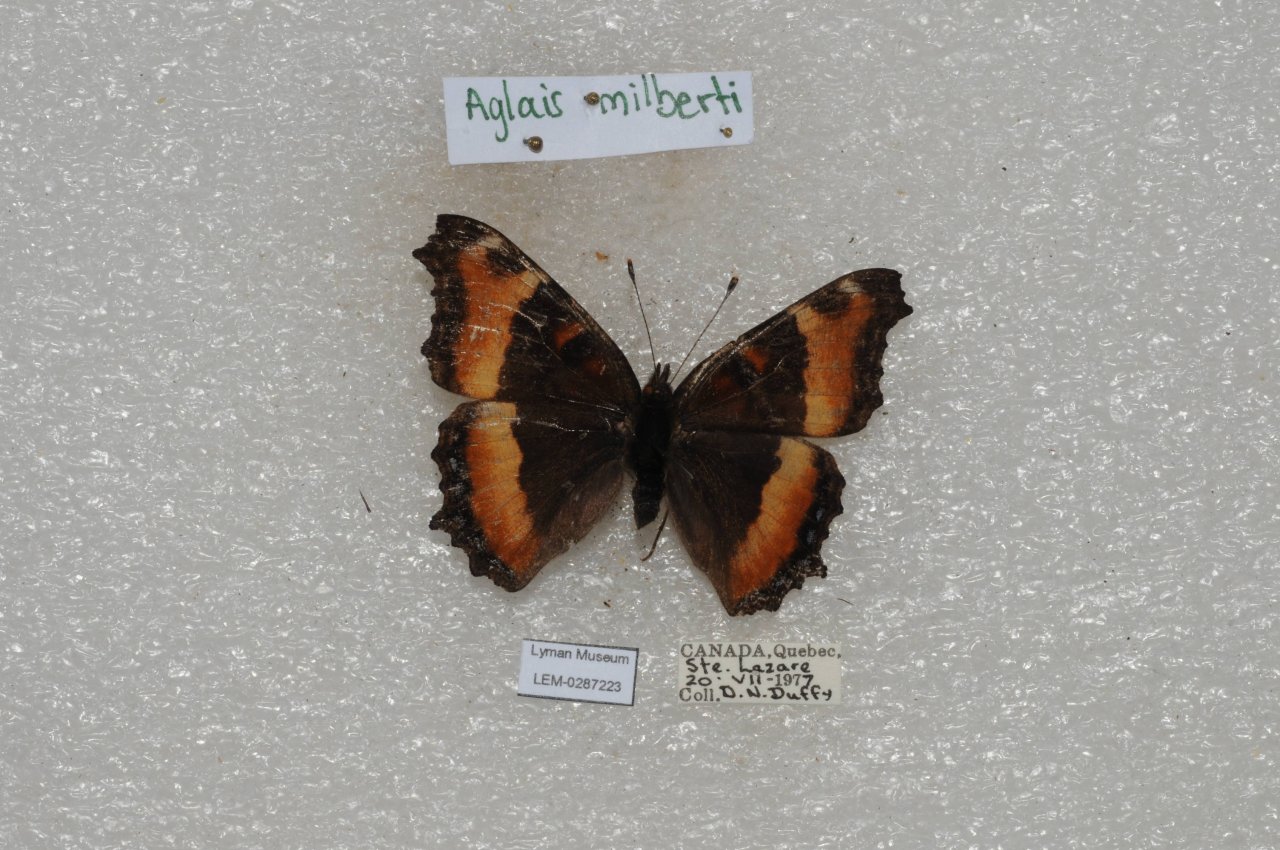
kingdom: Animalia
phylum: Arthropoda
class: Insecta
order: Lepidoptera
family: Nymphalidae
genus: Aglais
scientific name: Aglais milberti
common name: Milbert's Tortoiseshell
